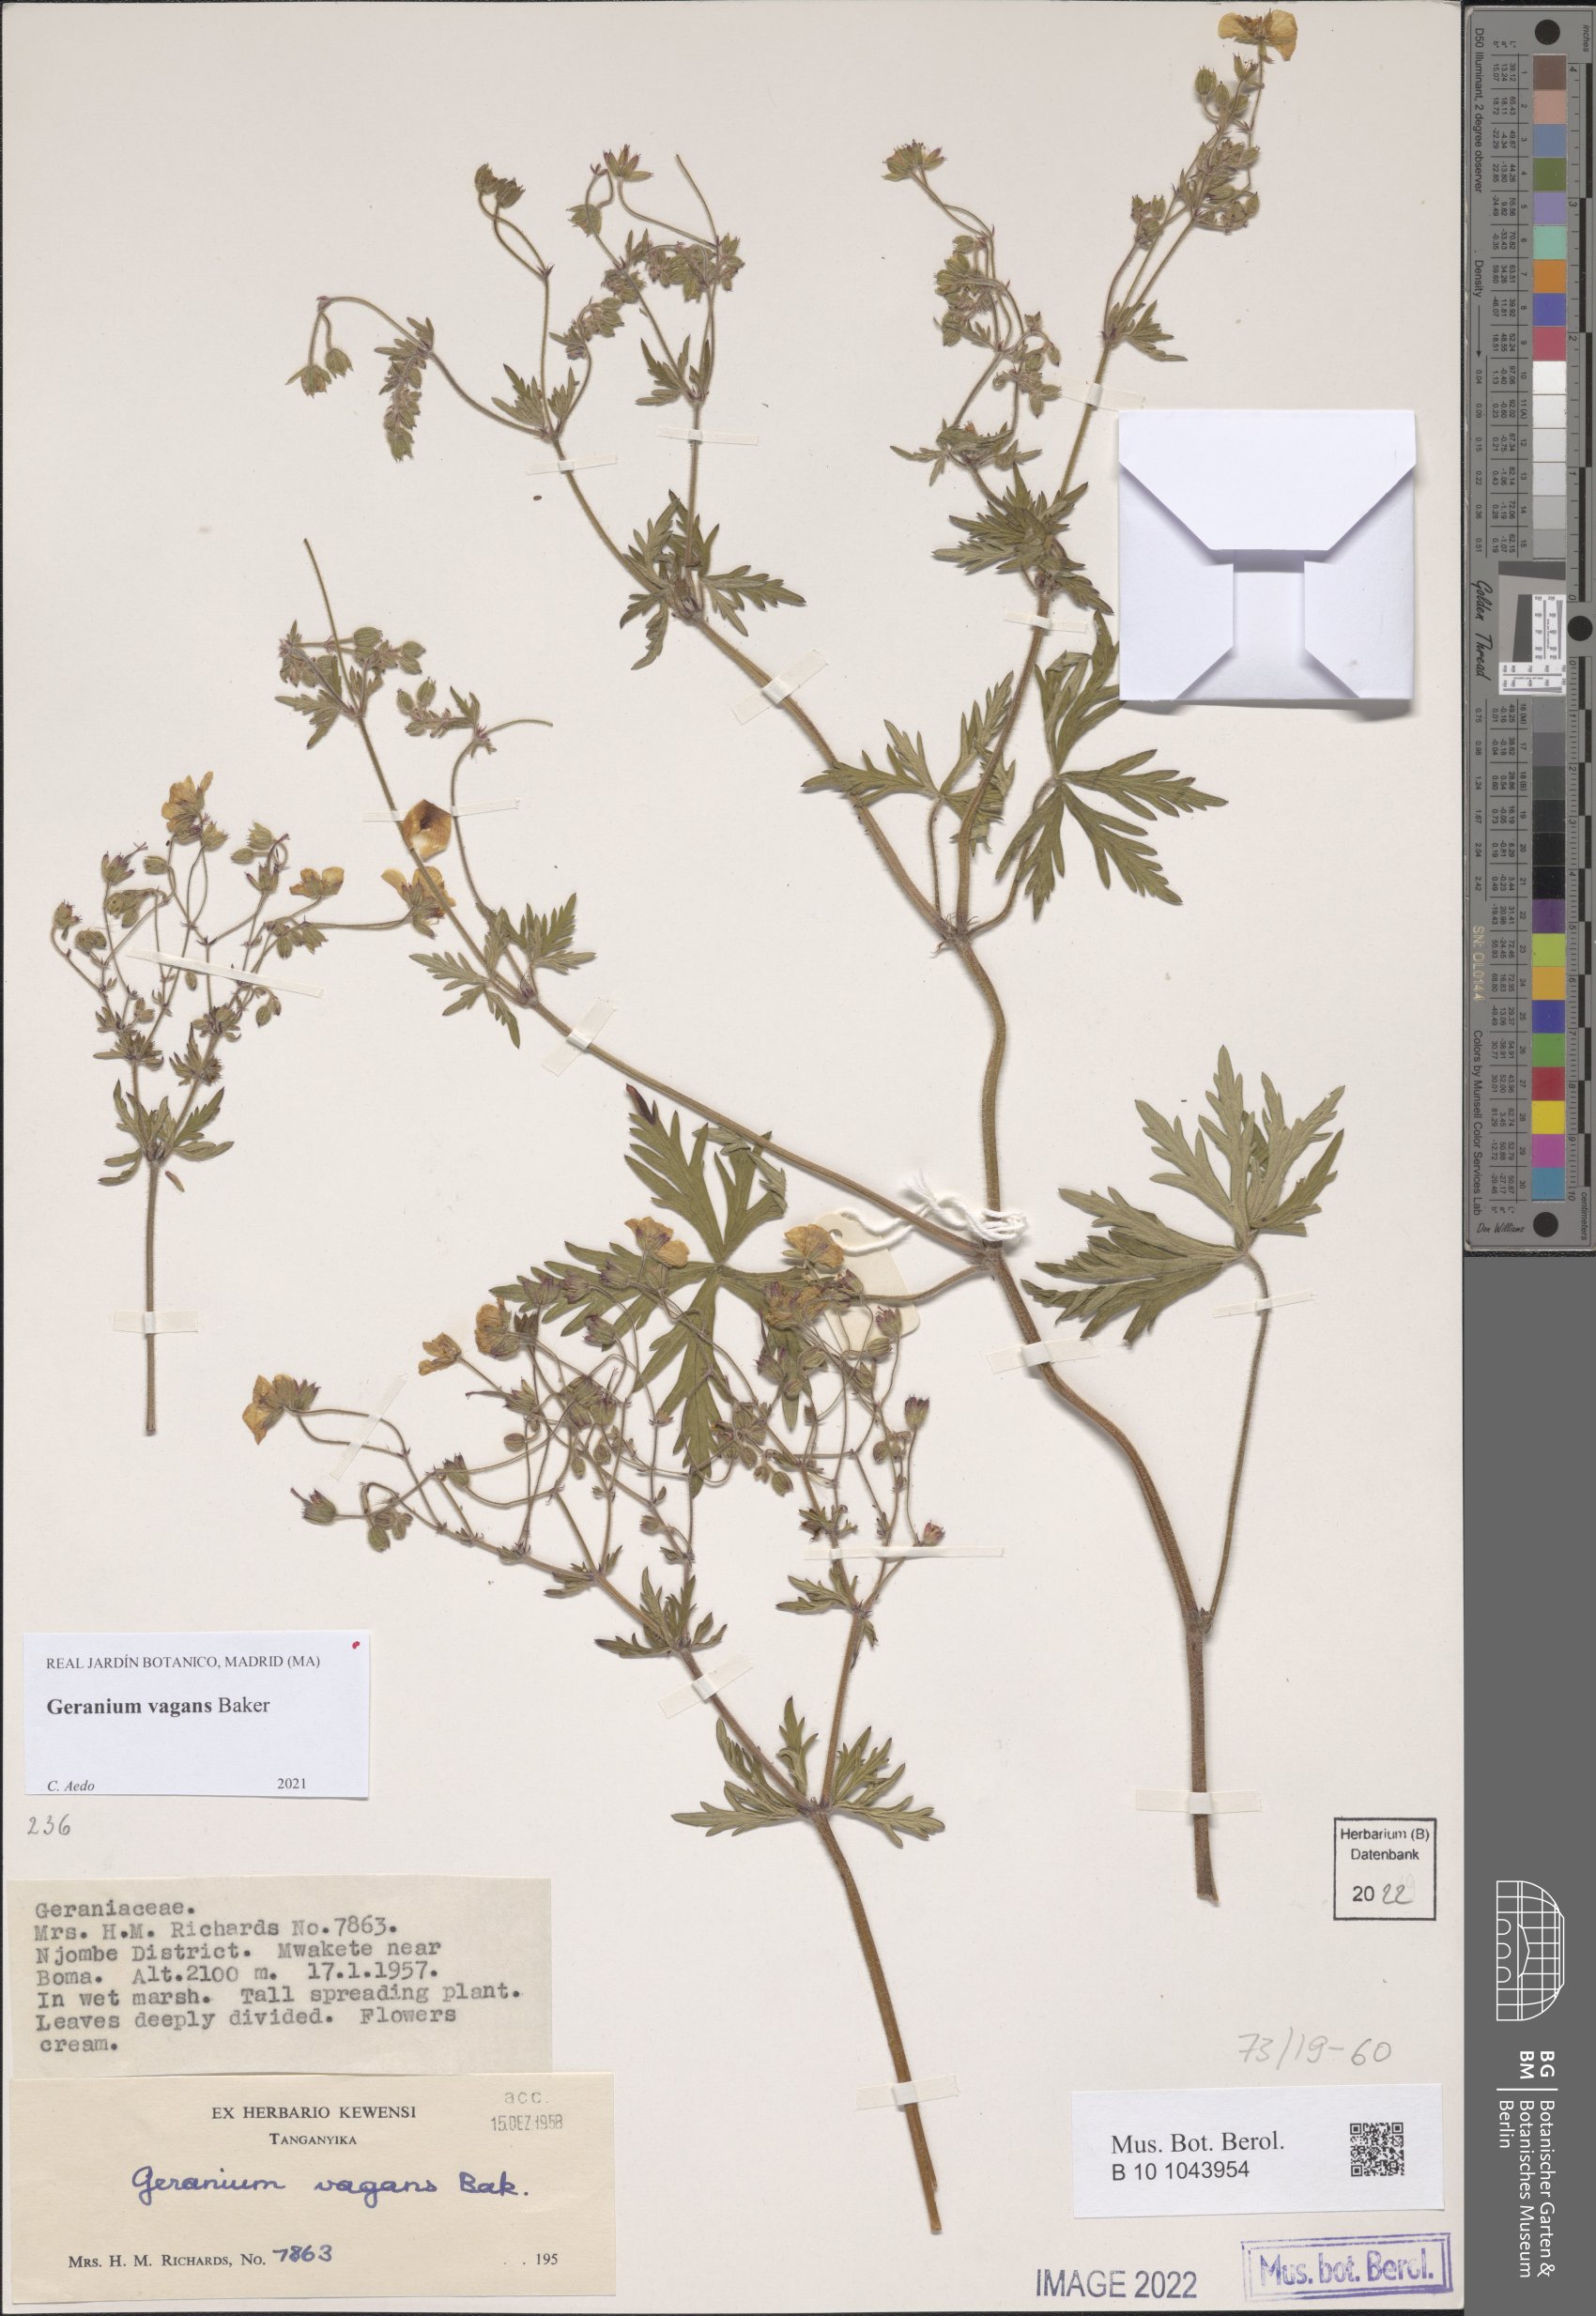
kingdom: Plantae
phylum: Tracheophyta
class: Magnoliopsida
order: Geraniales
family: Geraniaceae
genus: Geranium
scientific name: Geranium vagans
